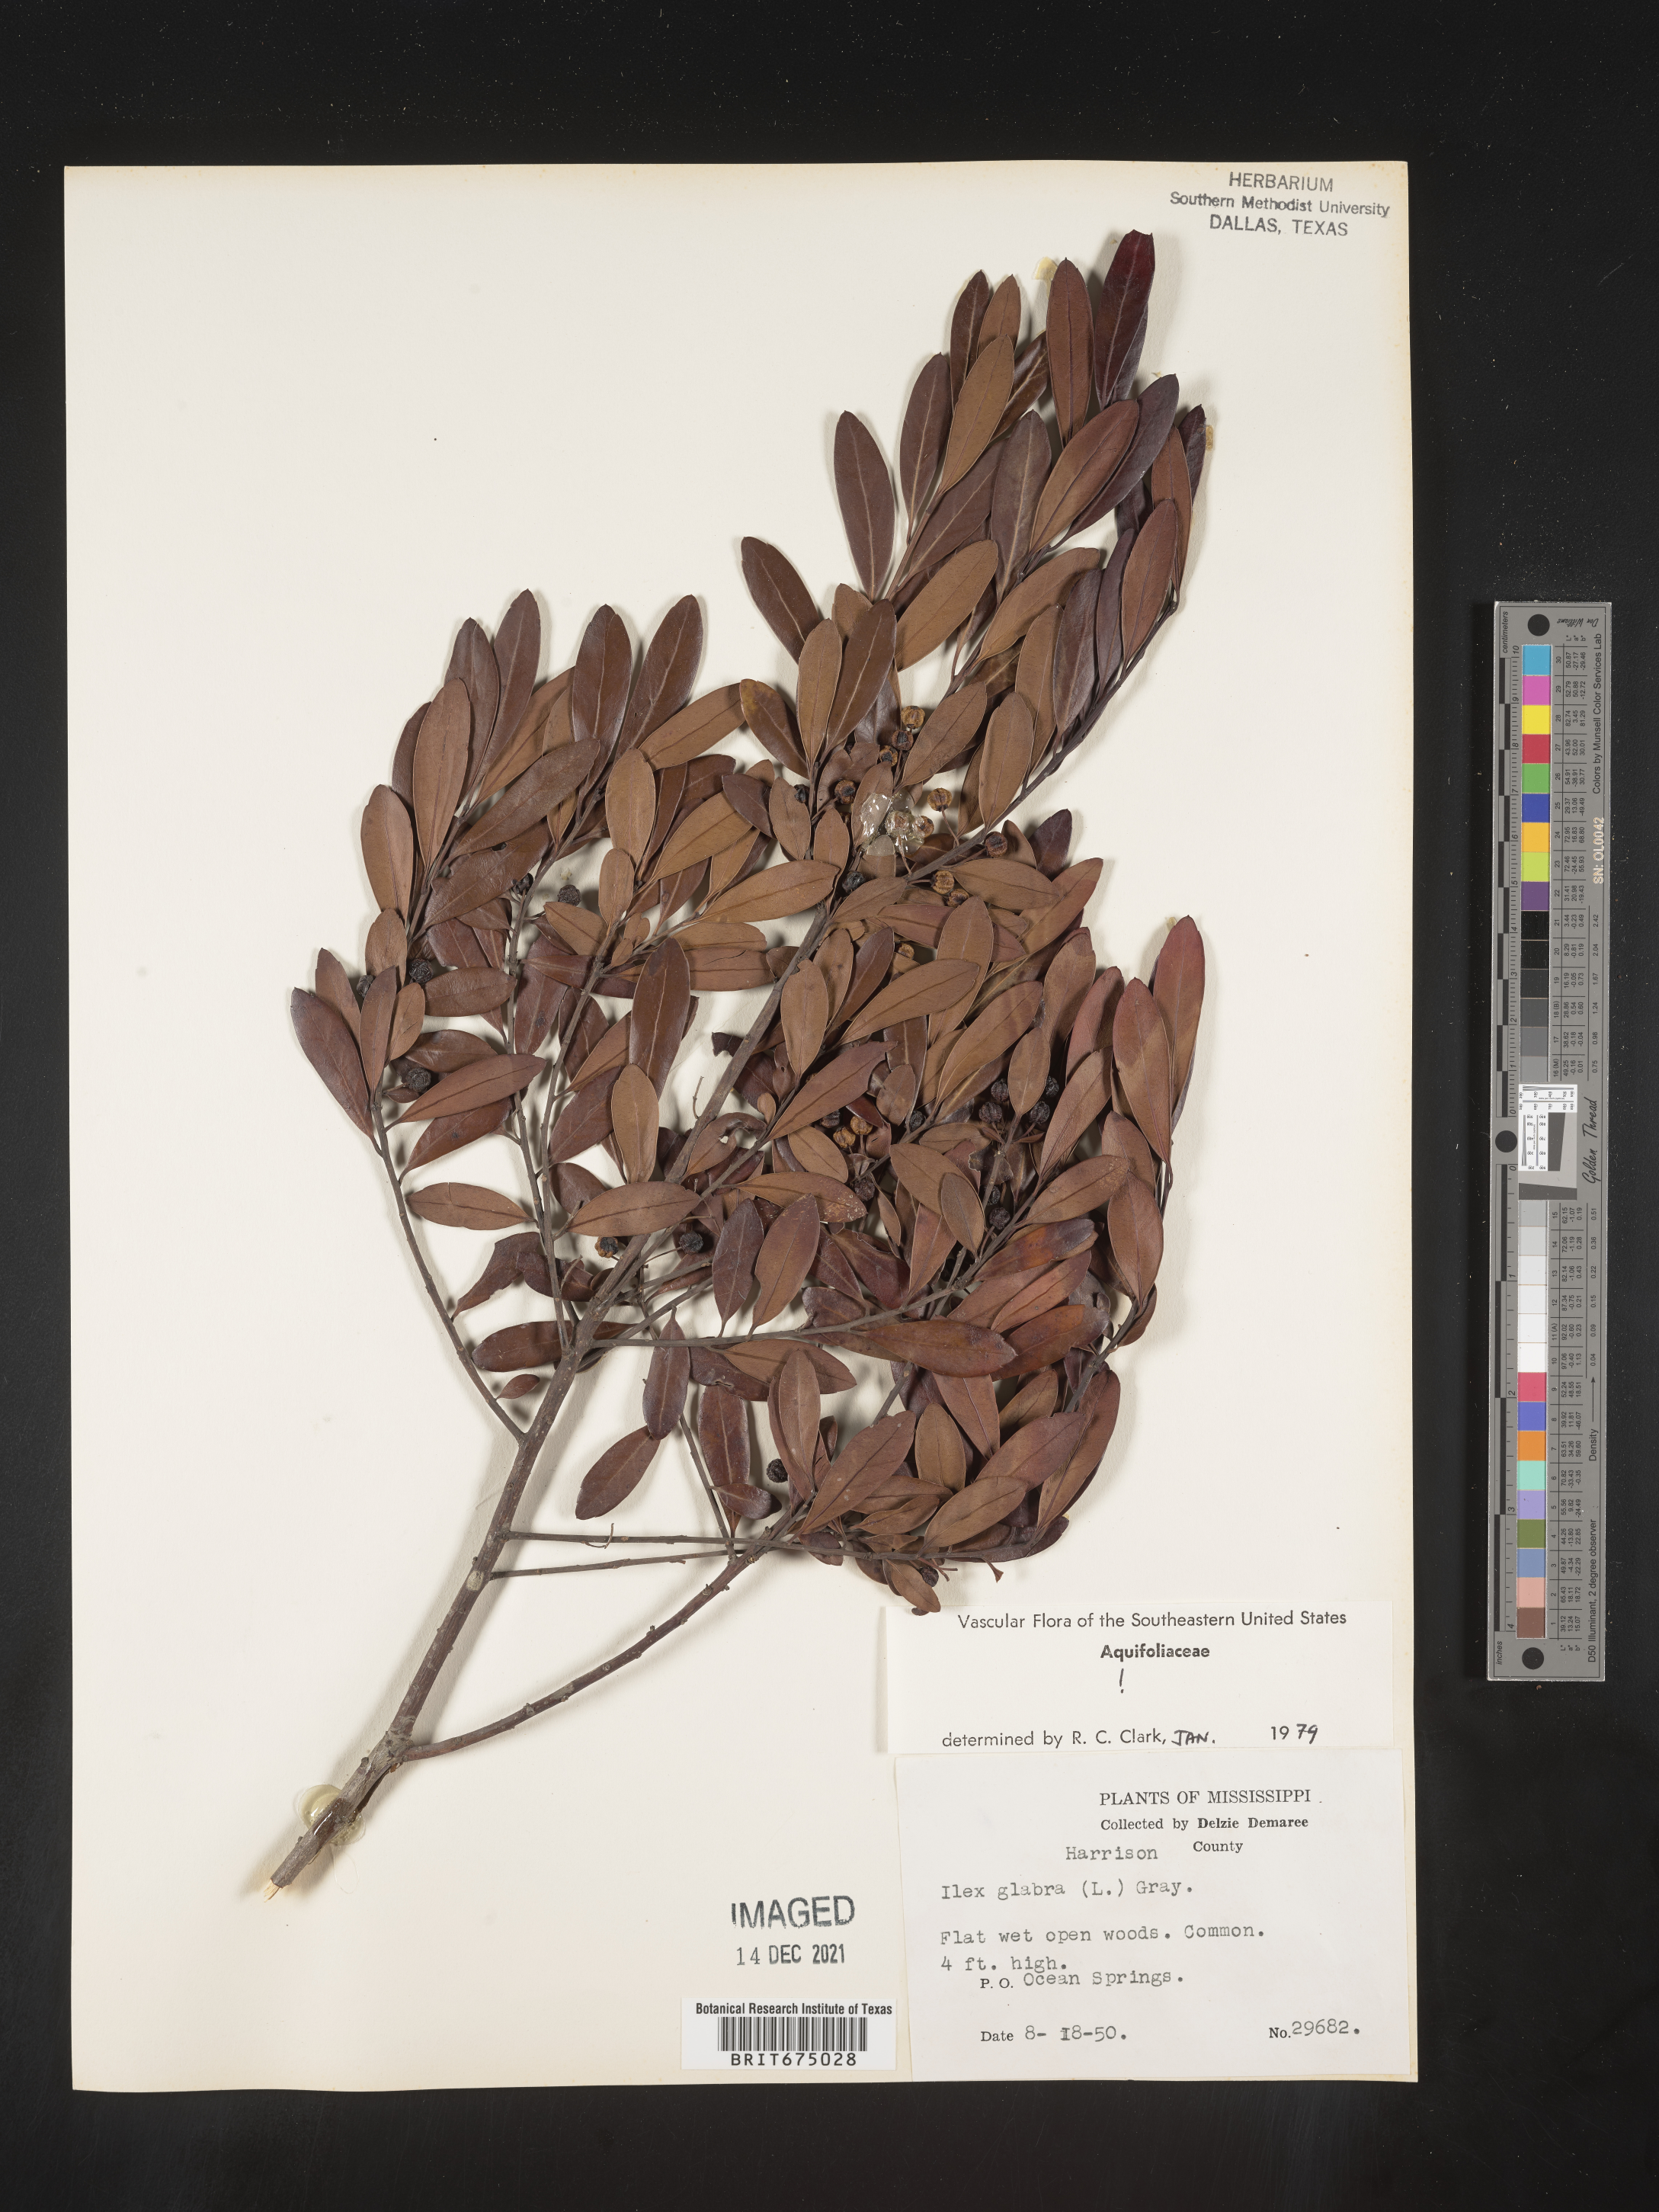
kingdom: Plantae
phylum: Tracheophyta
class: Magnoliopsida
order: Aquifoliales
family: Aquifoliaceae
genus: Ilex
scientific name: Ilex glabra
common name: Bitter gallberry
